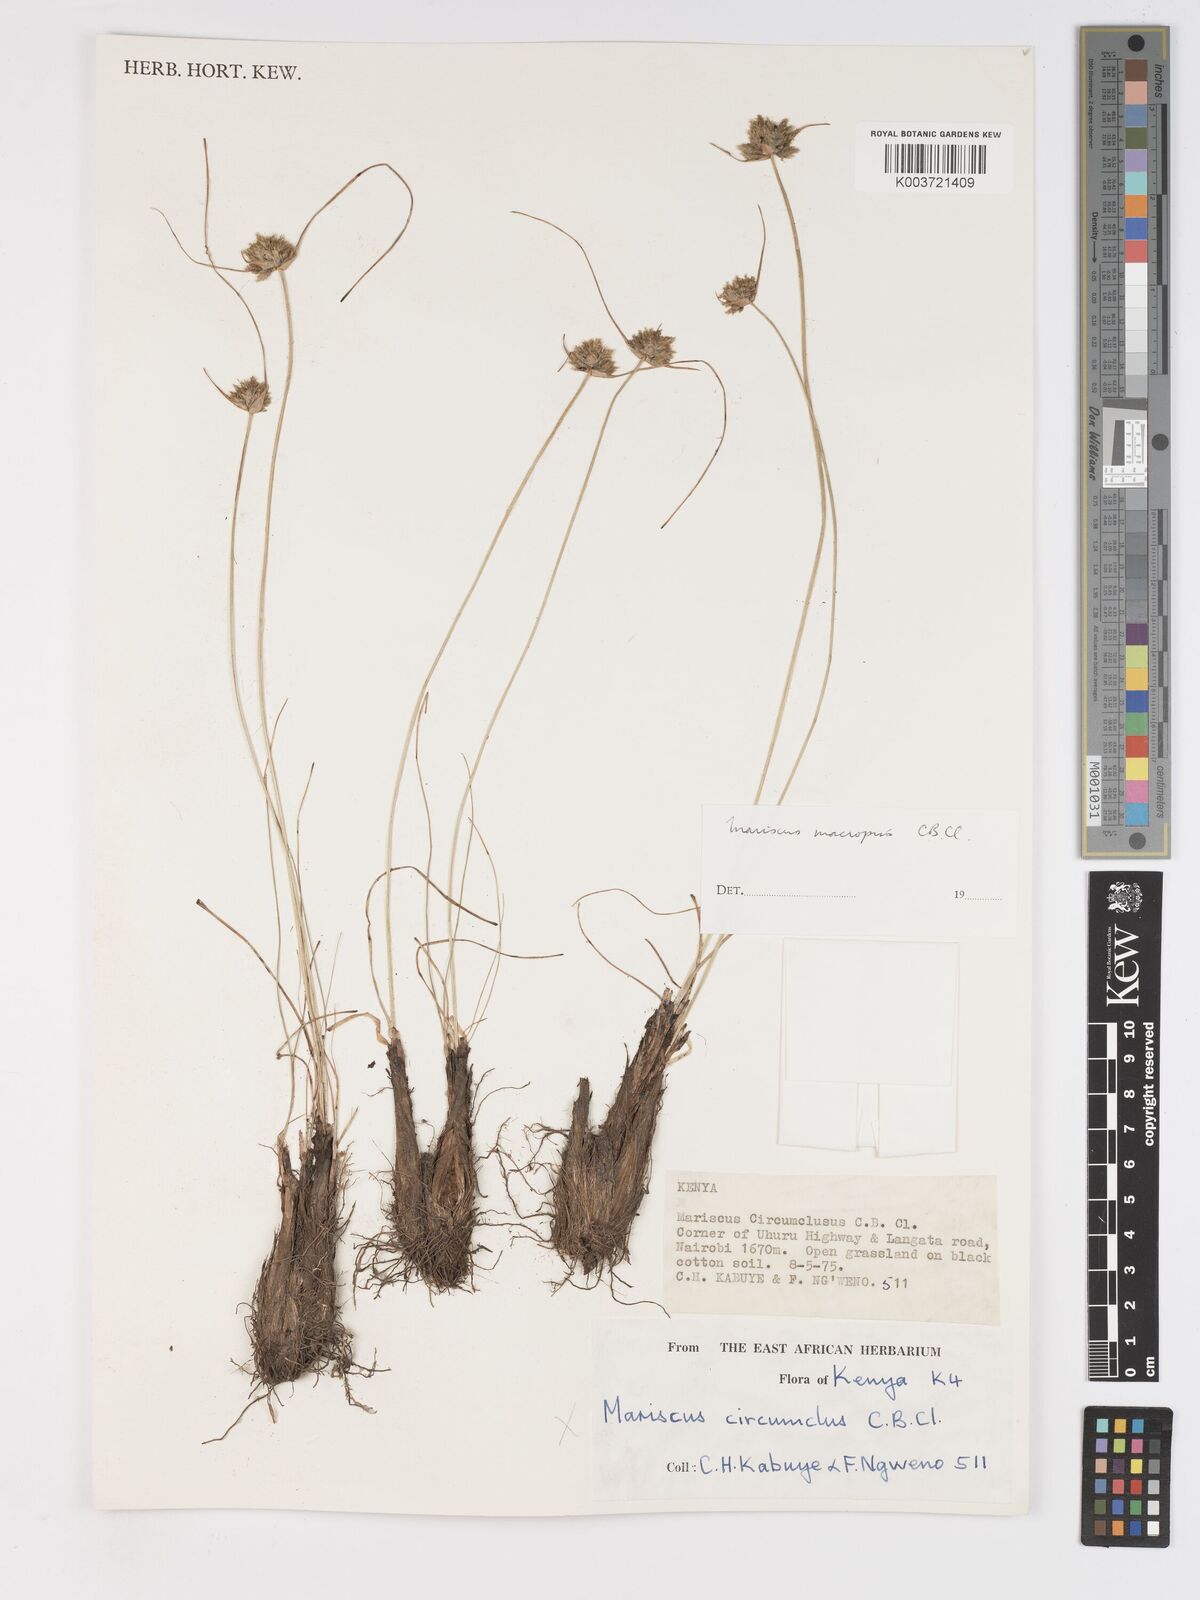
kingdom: Plantae
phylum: Tracheophyta
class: Liliopsida
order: Poales
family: Cyperaceae
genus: Cyperus
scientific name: Cyperus mollipes
